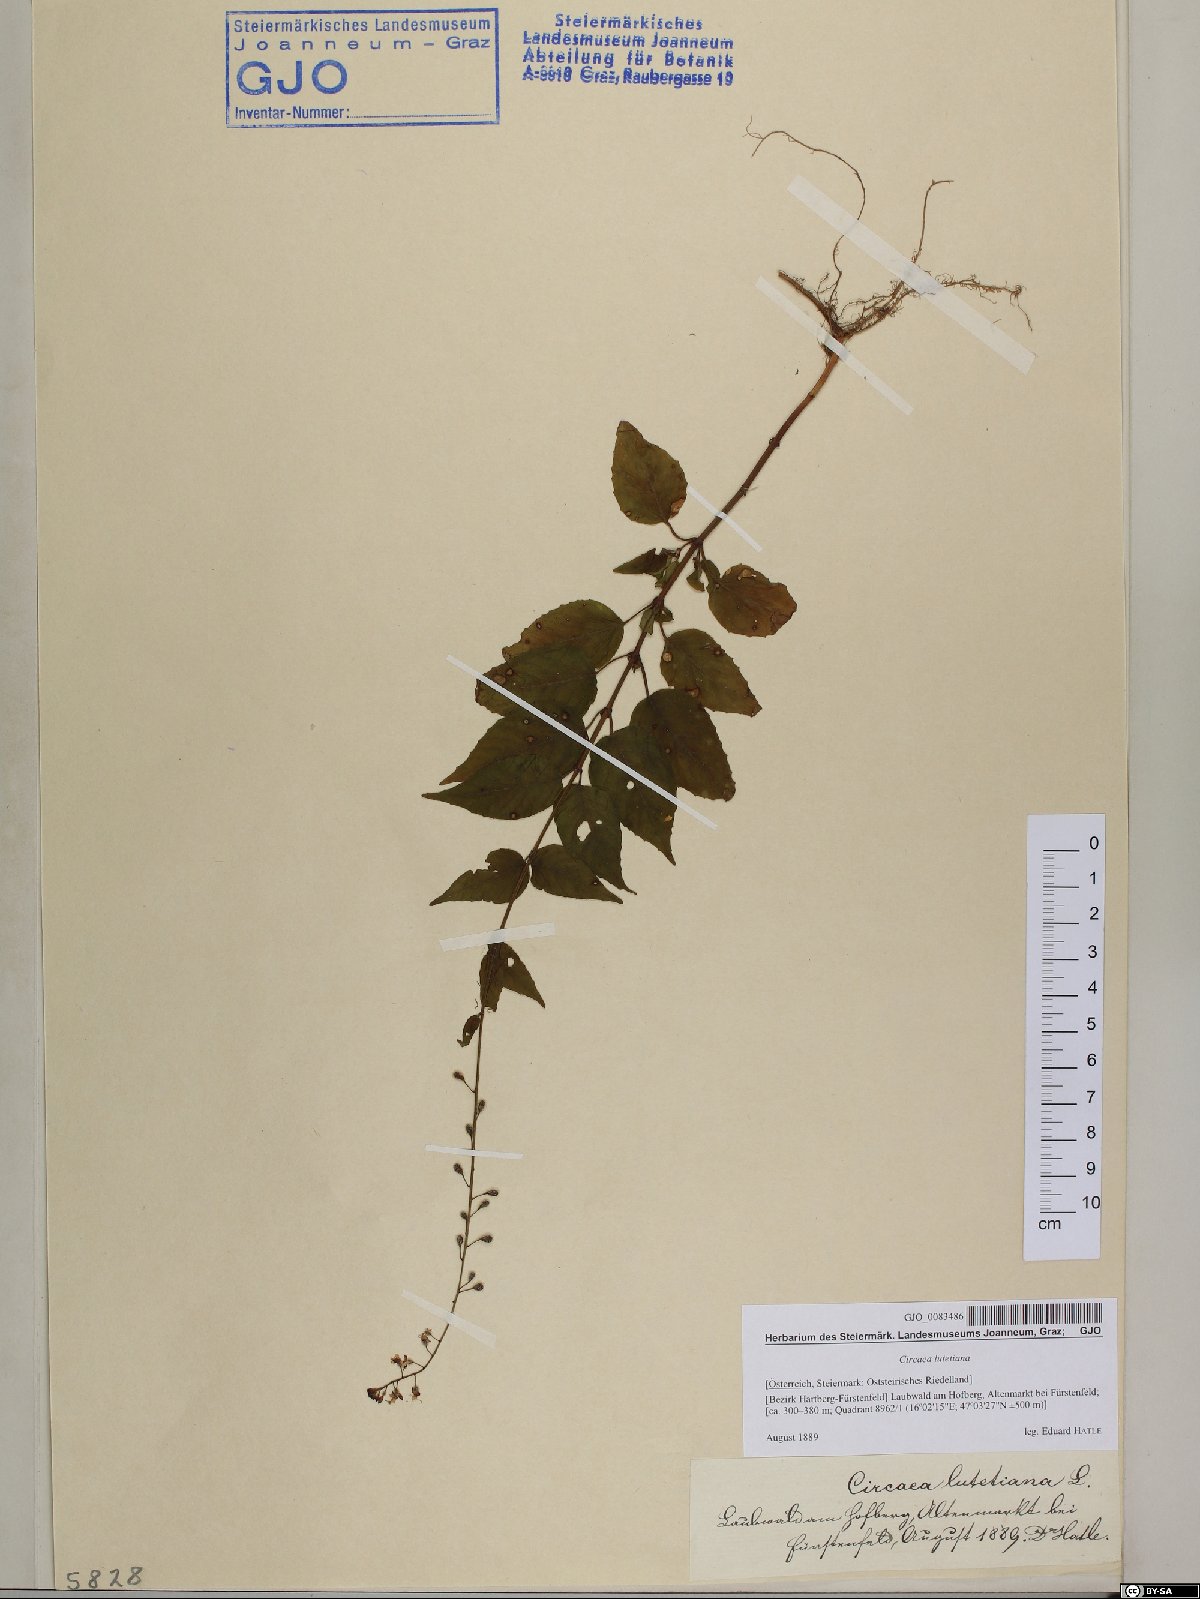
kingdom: Plantae
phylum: Tracheophyta
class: Magnoliopsida
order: Myrtales
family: Onagraceae
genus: Circaea
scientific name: Circaea lutetiana
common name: Enchanter's-nightshade
